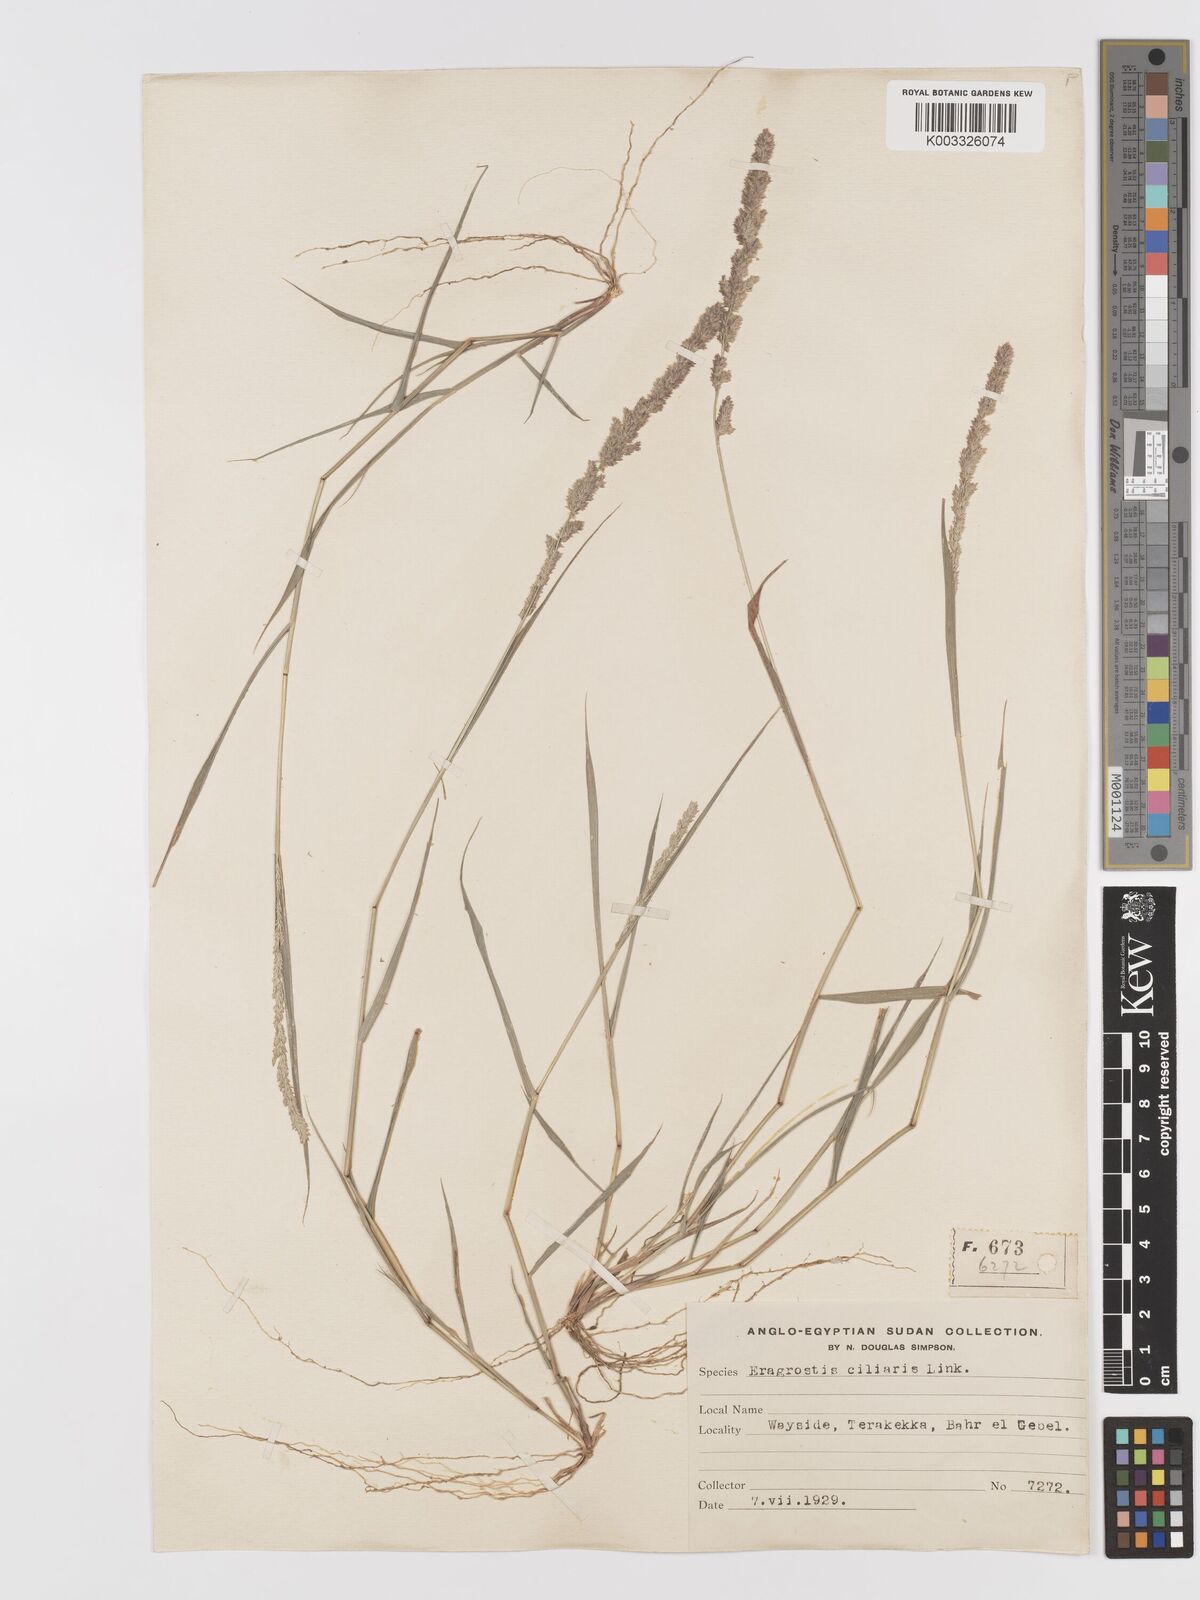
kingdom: Plantae
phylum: Tracheophyta
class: Liliopsida
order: Poales
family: Poaceae
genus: Eragrostis
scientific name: Eragrostis ciliaris
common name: Gophertail lovegrass
